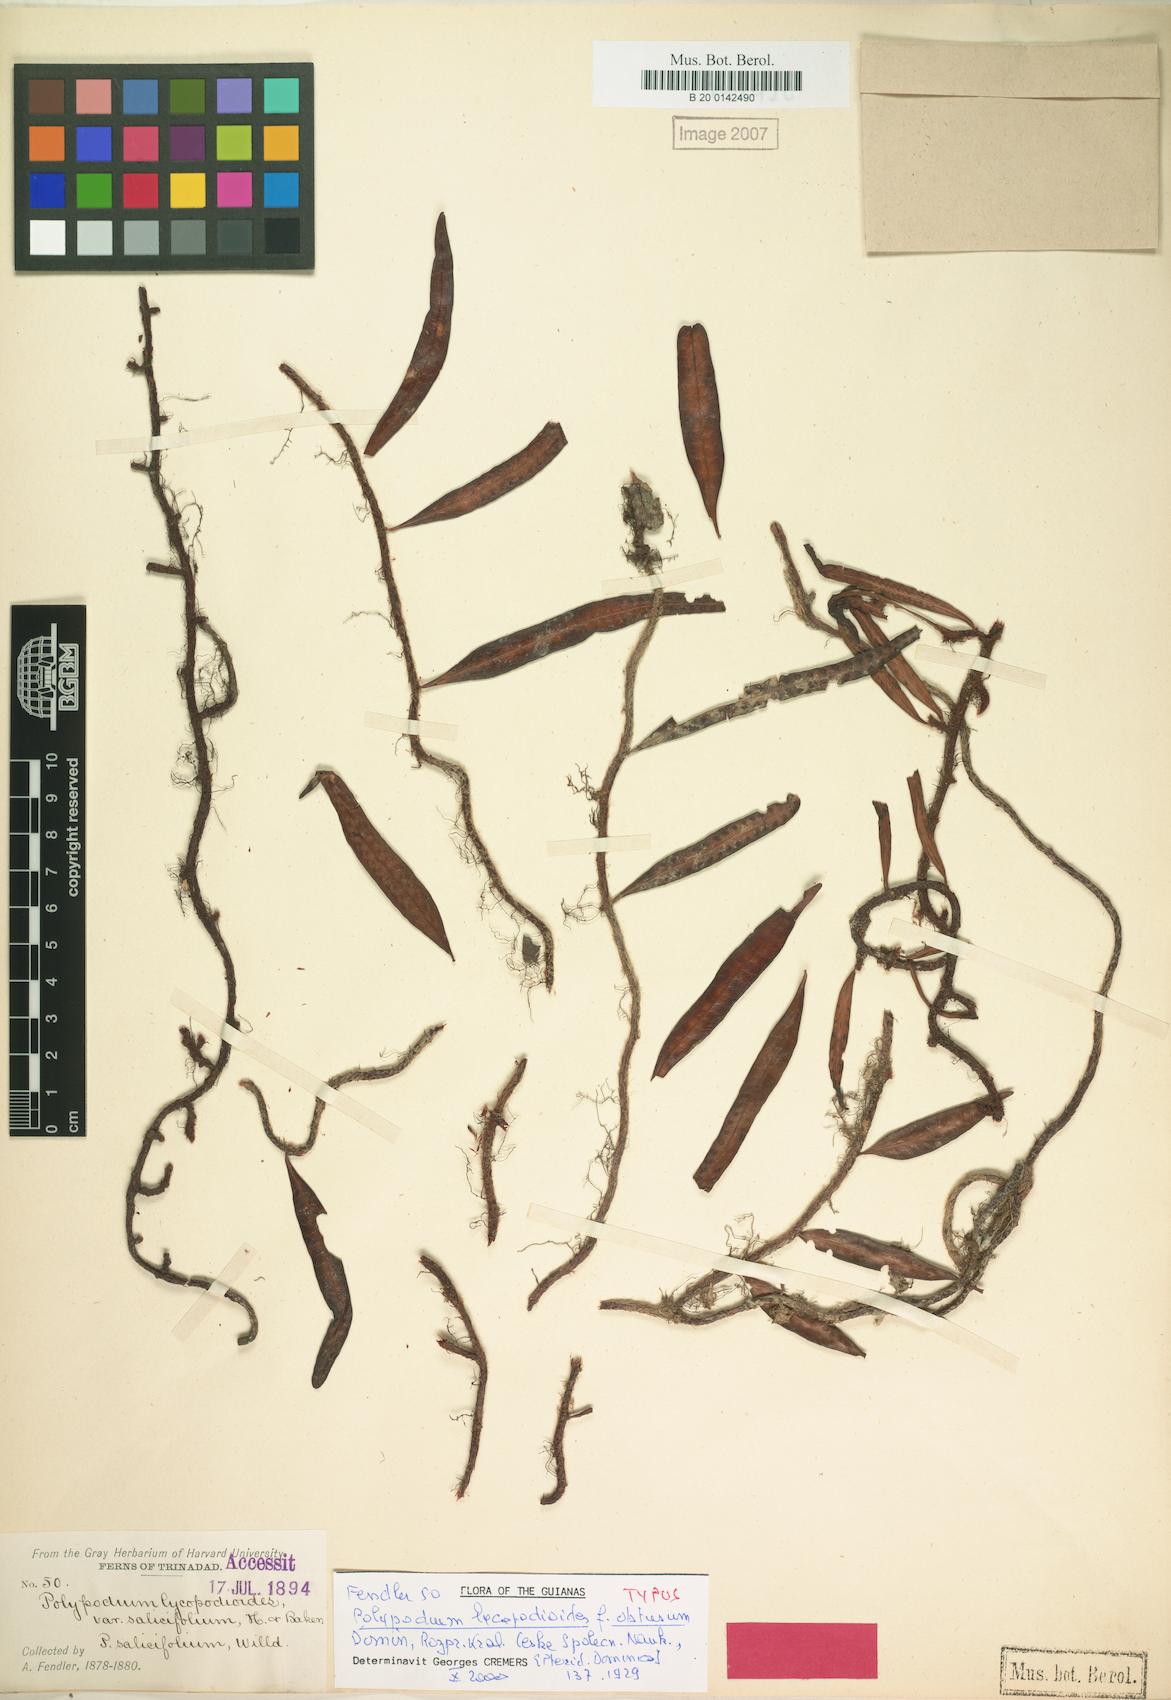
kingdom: Plantae
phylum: Tracheophyta
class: Polypodiopsida
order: Polypodiales
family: Polypodiaceae
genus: Microgramma
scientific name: Microgramma lycopodioides
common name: Bastard catclaw
